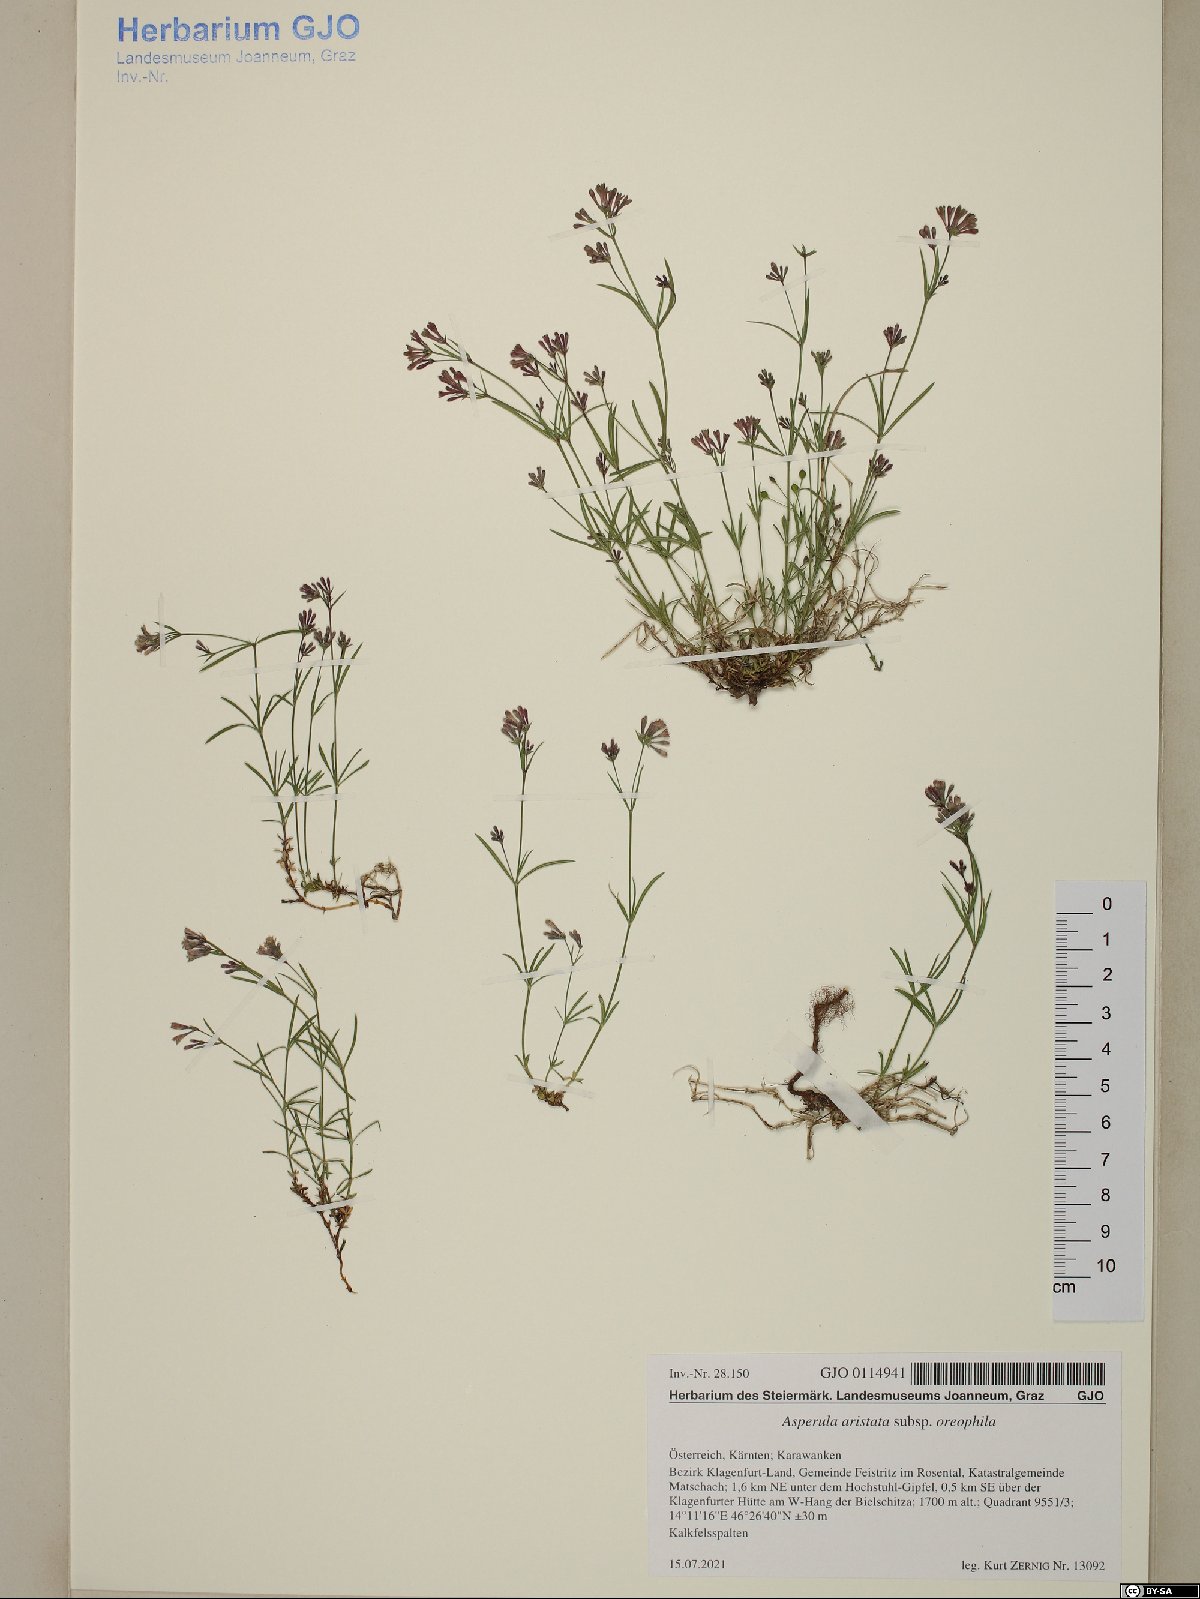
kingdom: Plantae
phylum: Tracheophyta
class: Magnoliopsida
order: Gentianales
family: Rubiaceae
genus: Cynanchica
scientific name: Cynanchica aristata
